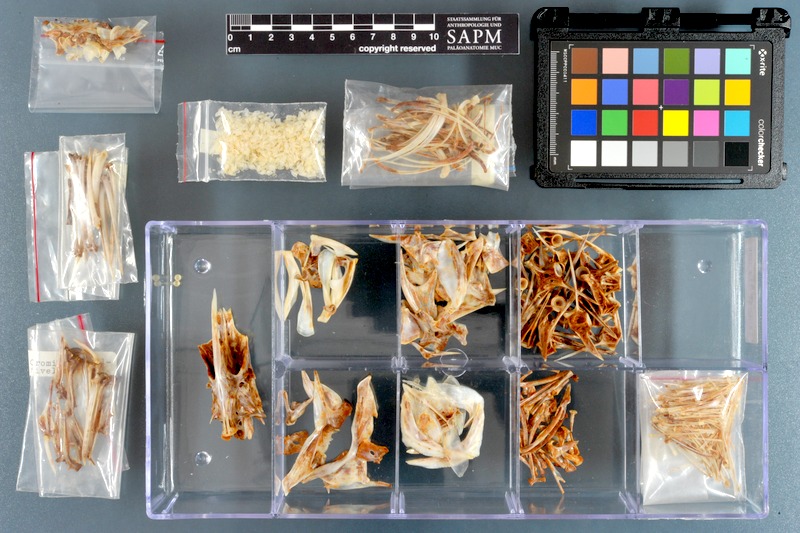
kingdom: Animalia
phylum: Chordata
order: Perciformes
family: Serranidae
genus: Cromileptes
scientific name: Cromileptes altivelis
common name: Humpback grouper
